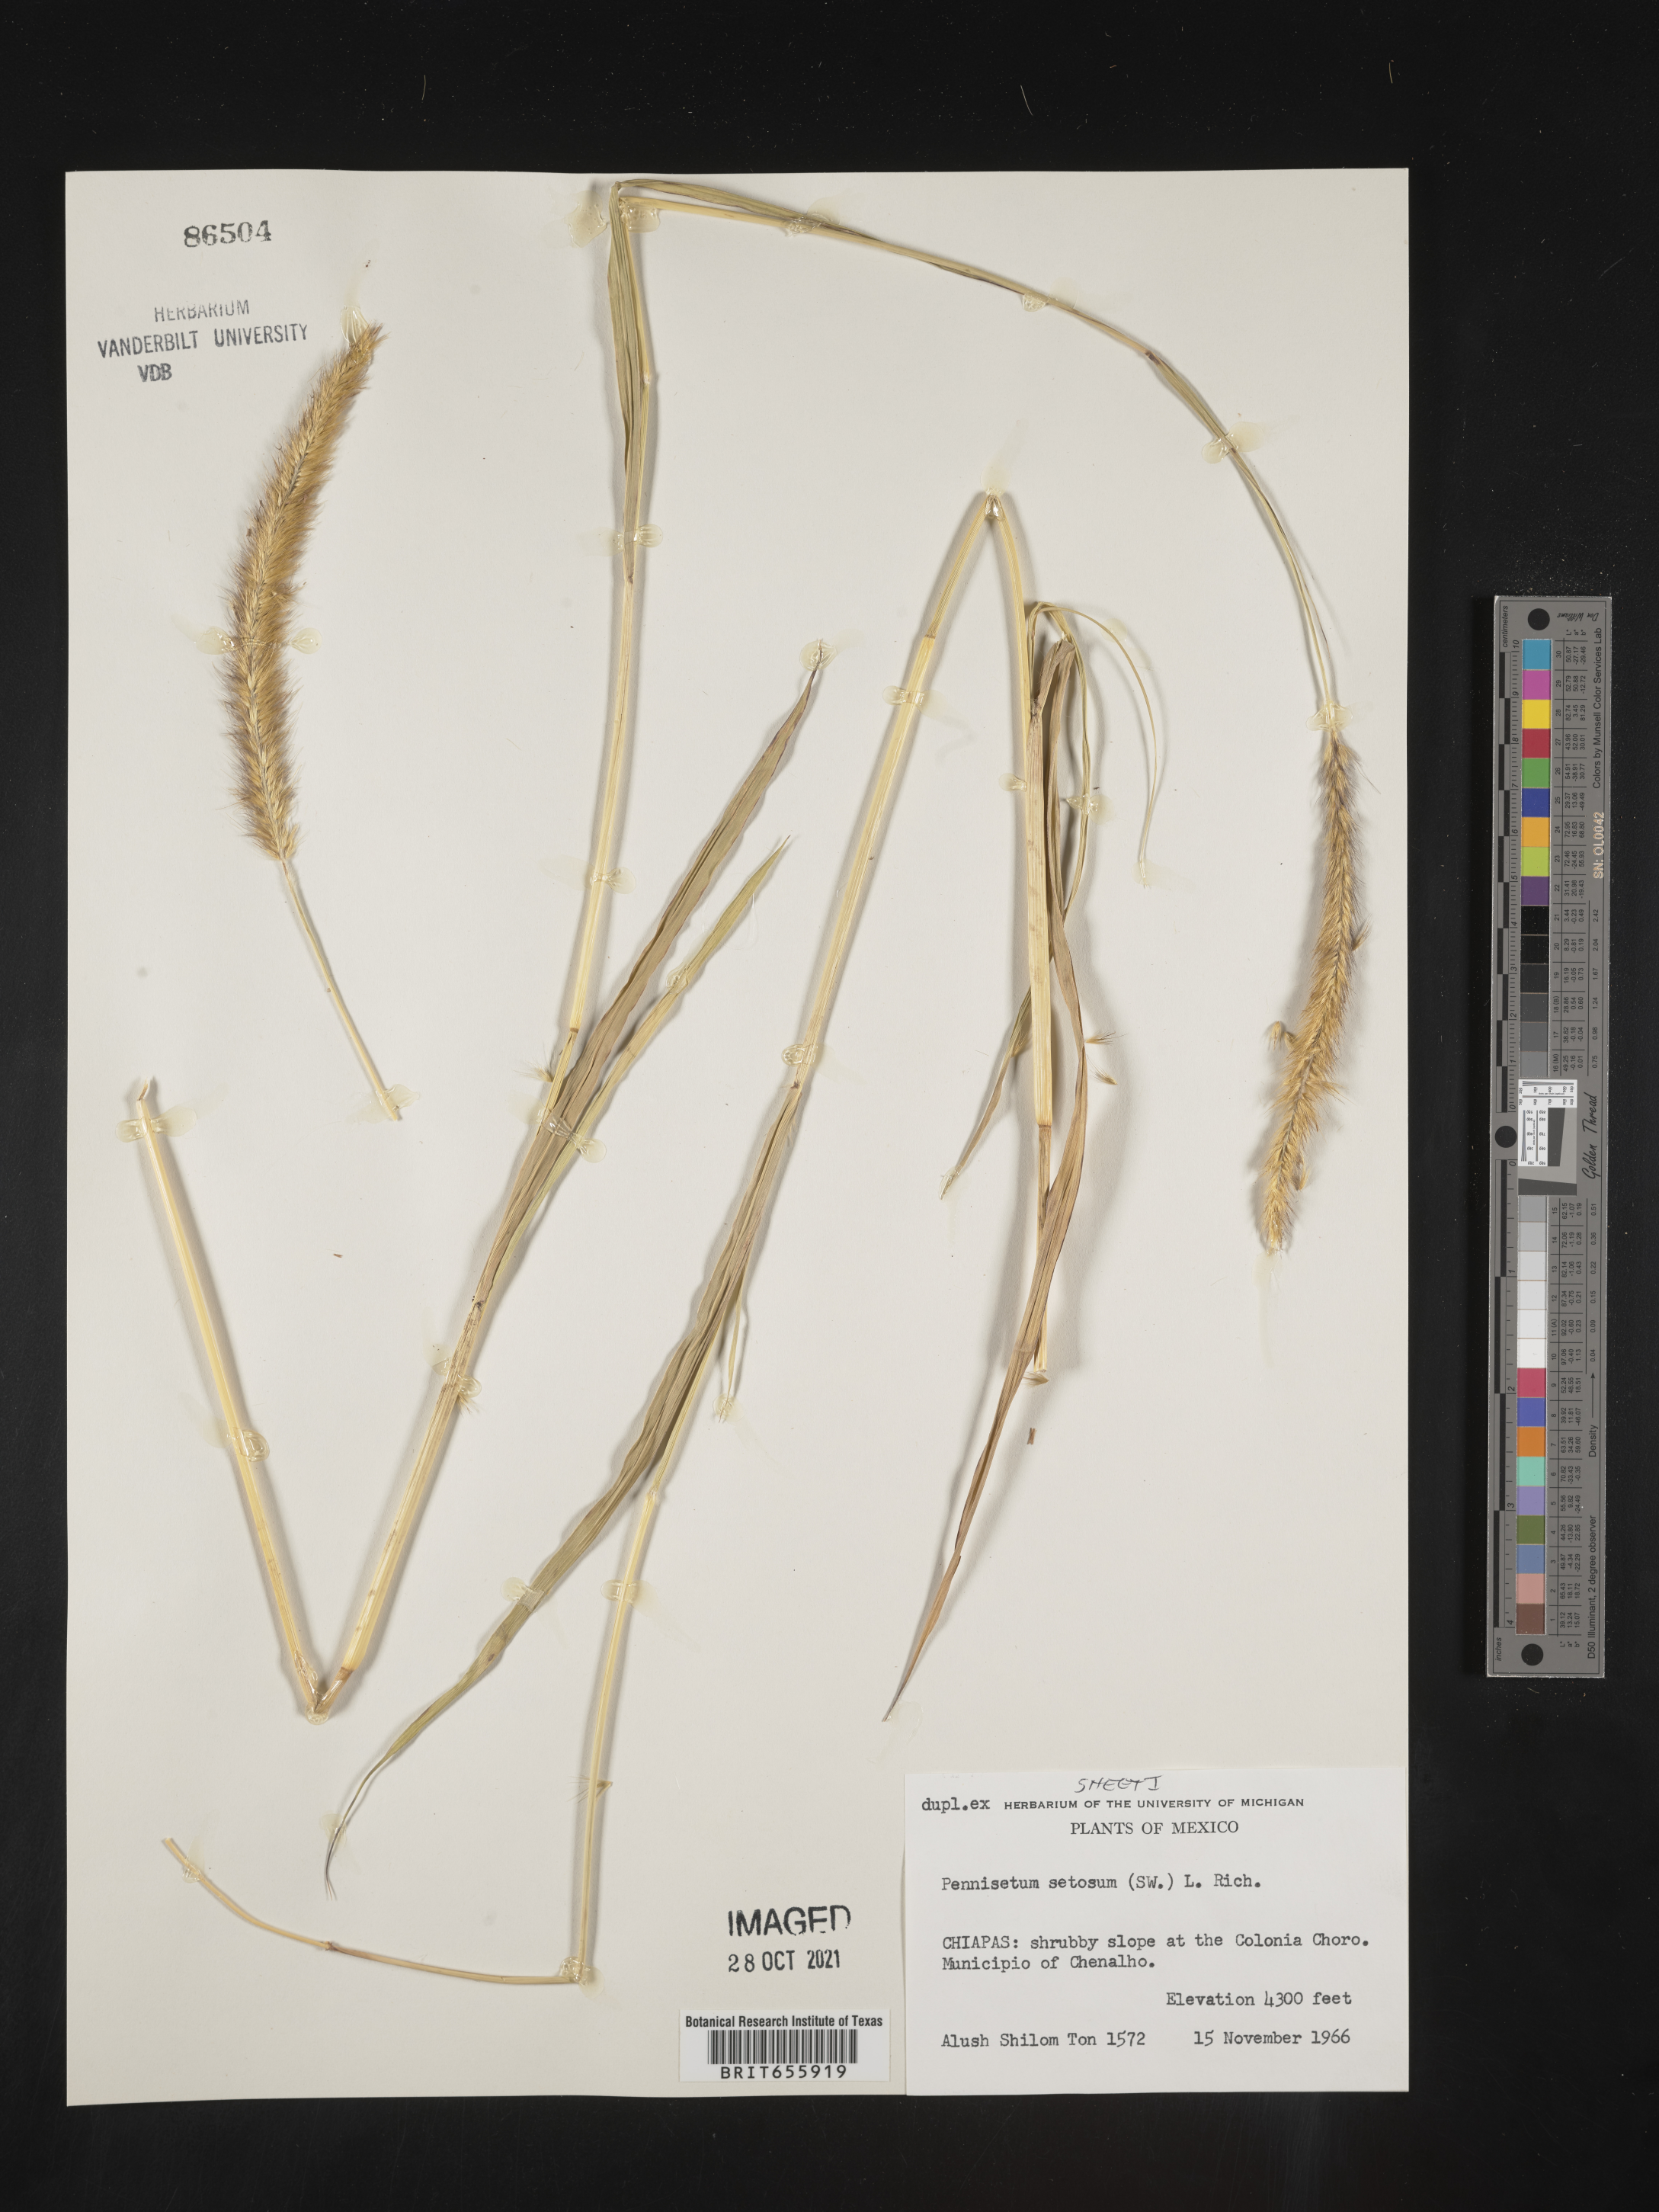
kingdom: Plantae
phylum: Tracheophyta
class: Liliopsida
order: Poales
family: Poaceae
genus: Cenchrus
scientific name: Cenchrus Pennisetum spec
